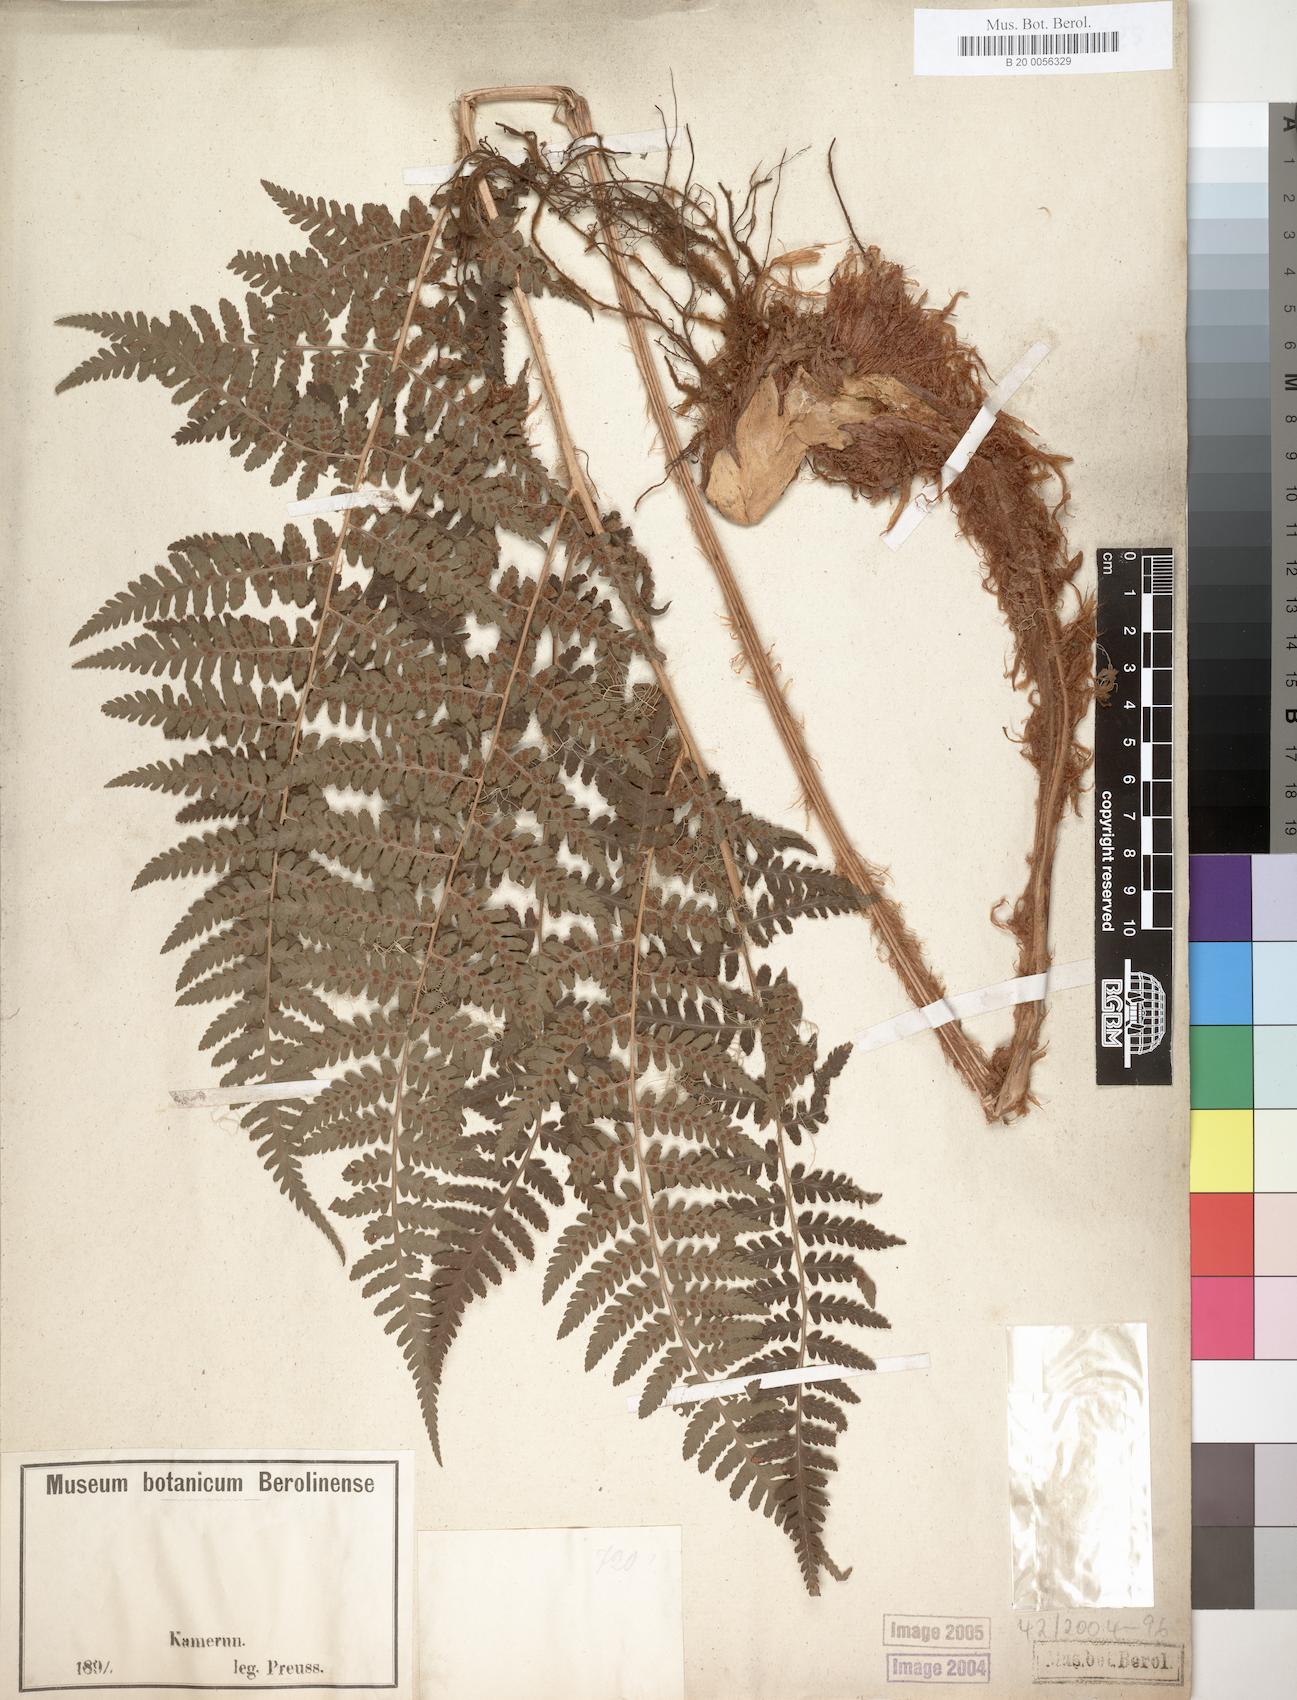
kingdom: Plantae
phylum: Tracheophyta
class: Polypodiopsida
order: Polypodiales
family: Dryopteridaceae
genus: Dryopteris
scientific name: Dryopteris filix-mas
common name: Male fern
